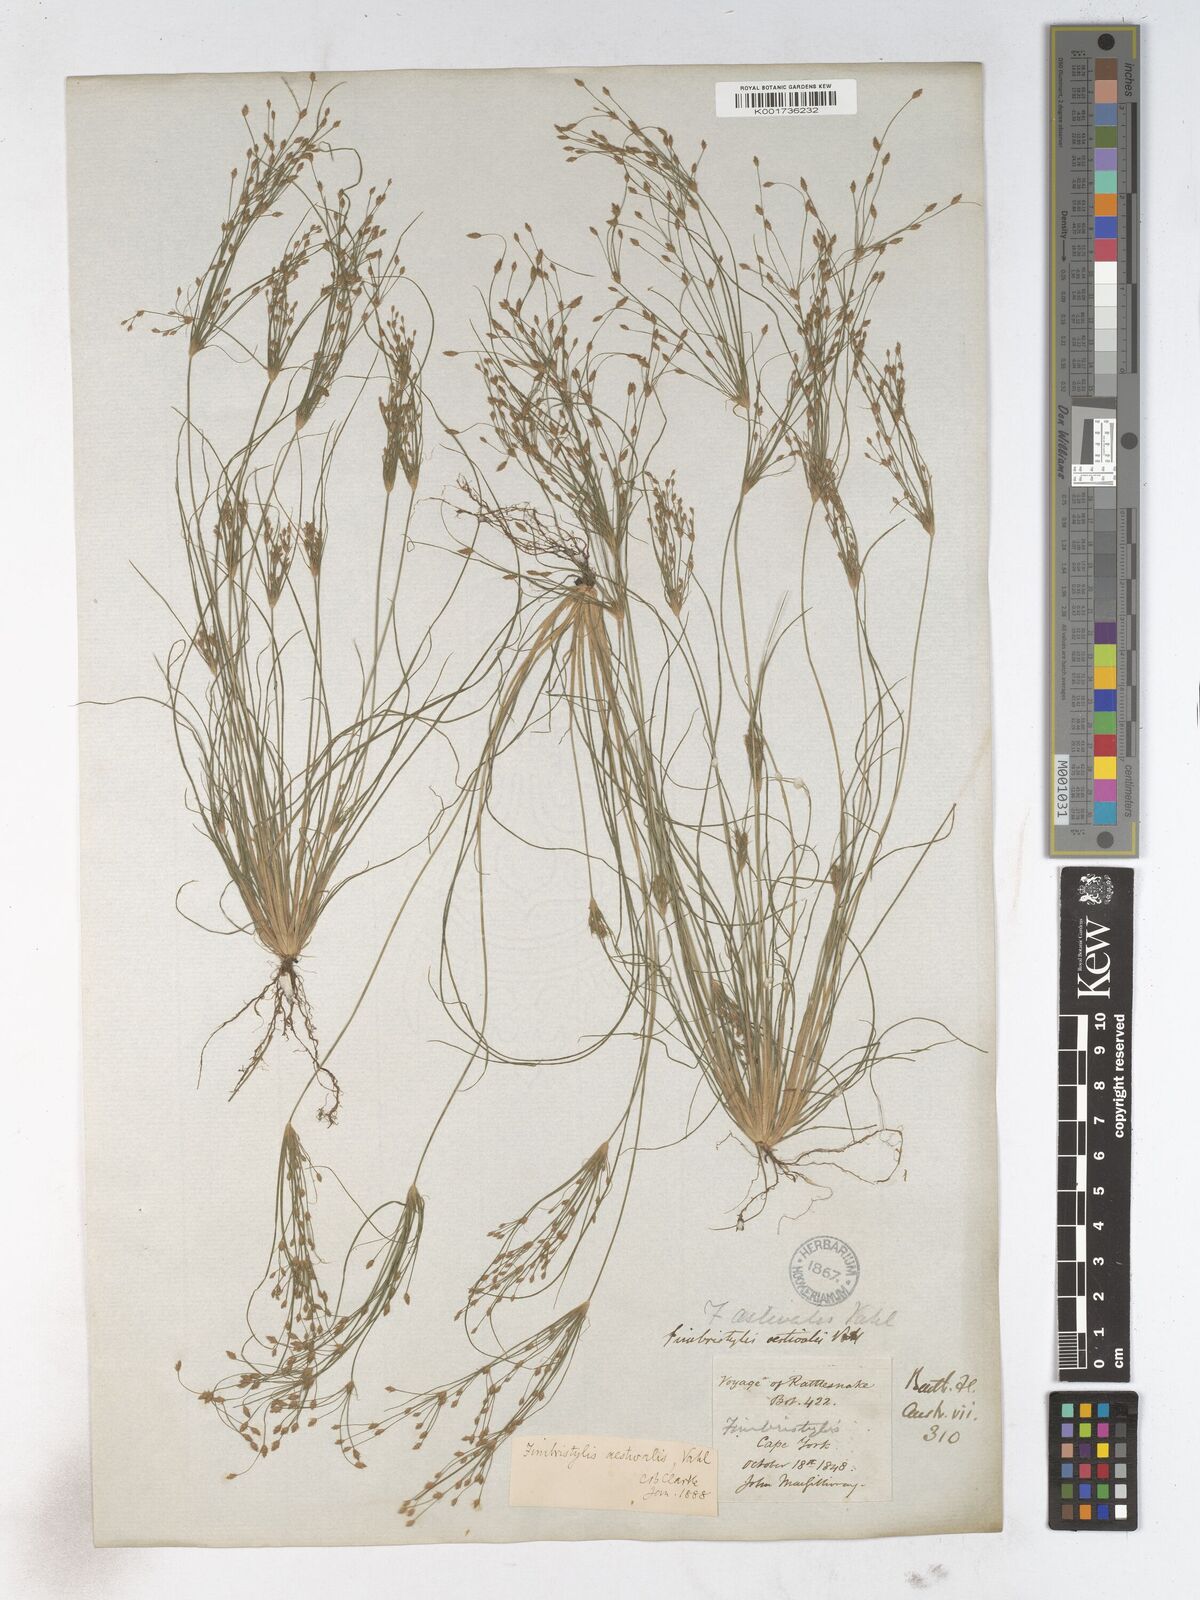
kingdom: Plantae
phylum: Tracheophyta
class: Liliopsida
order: Poales
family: Cyperaceae
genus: Fimbristylis
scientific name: Fimbristylis aestivalis
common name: Summer fimbry
